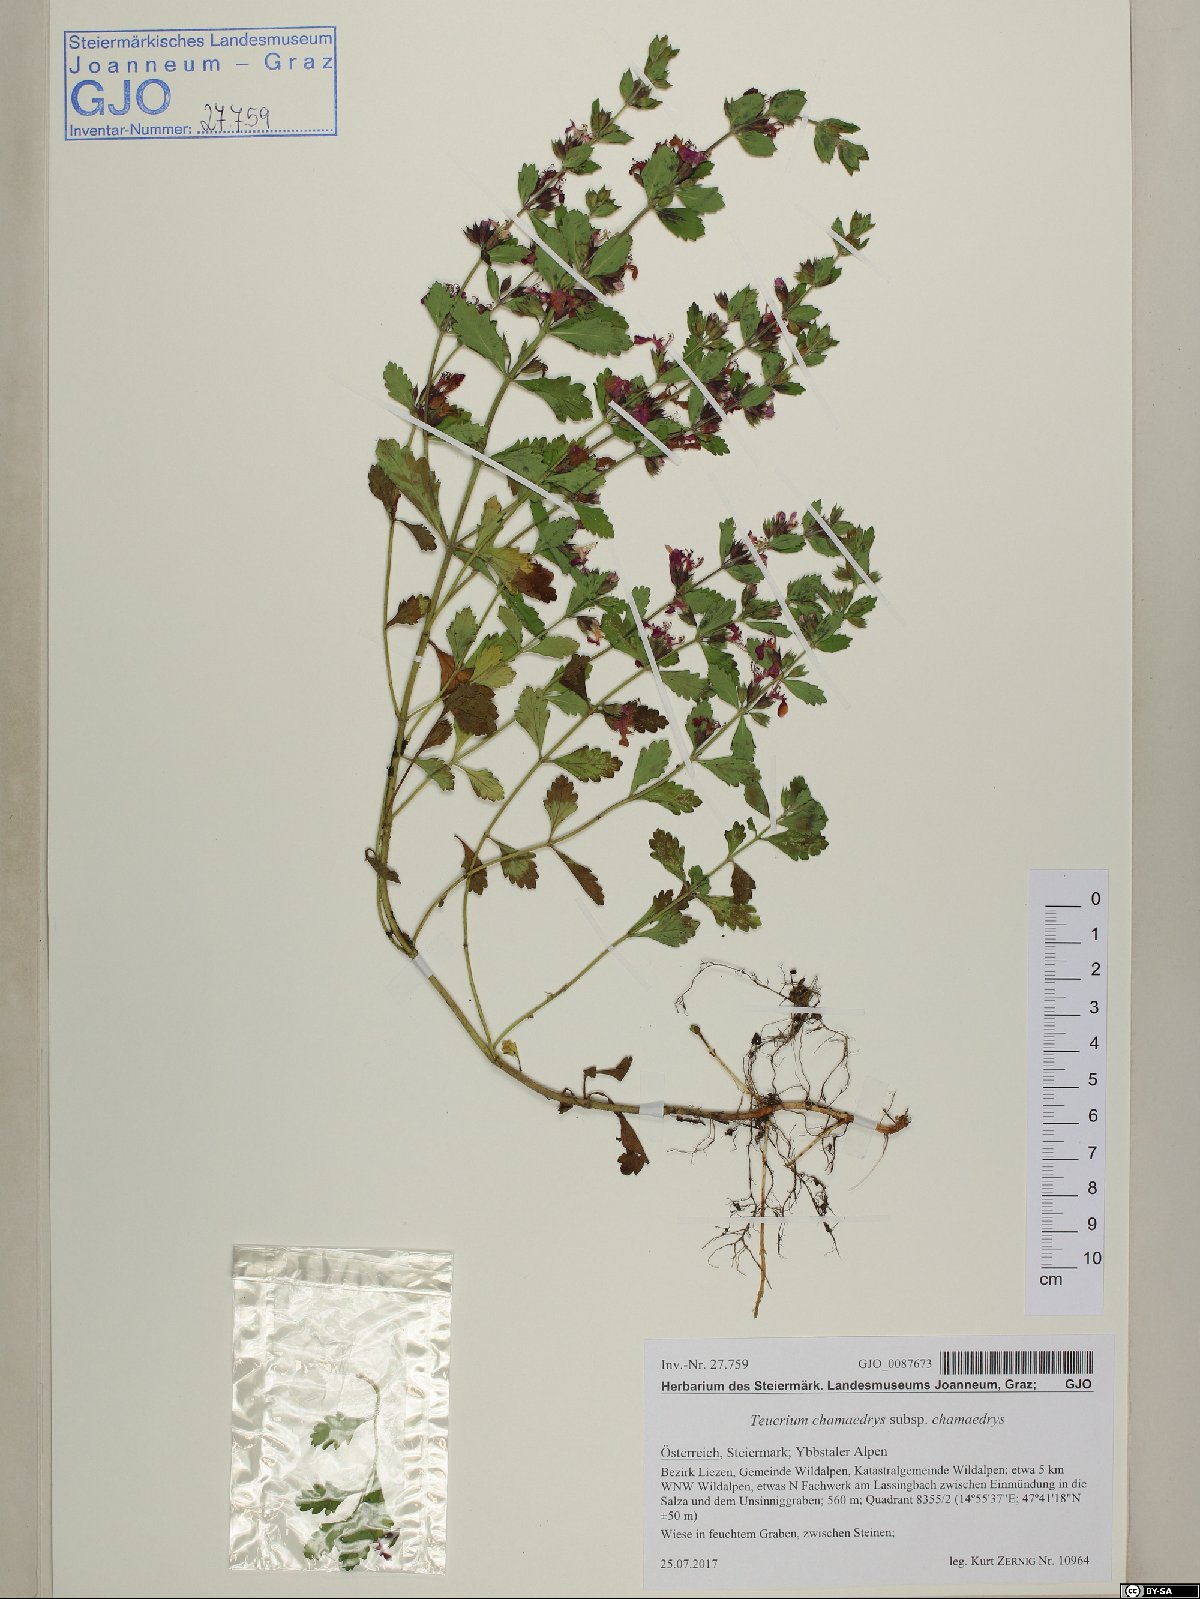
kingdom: Plantae
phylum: Tracheophyta
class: Magnoliopsida
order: Lamiales
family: Lamiaceae
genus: Teucrium
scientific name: Teucrium chamaedrys
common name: Wall germander
